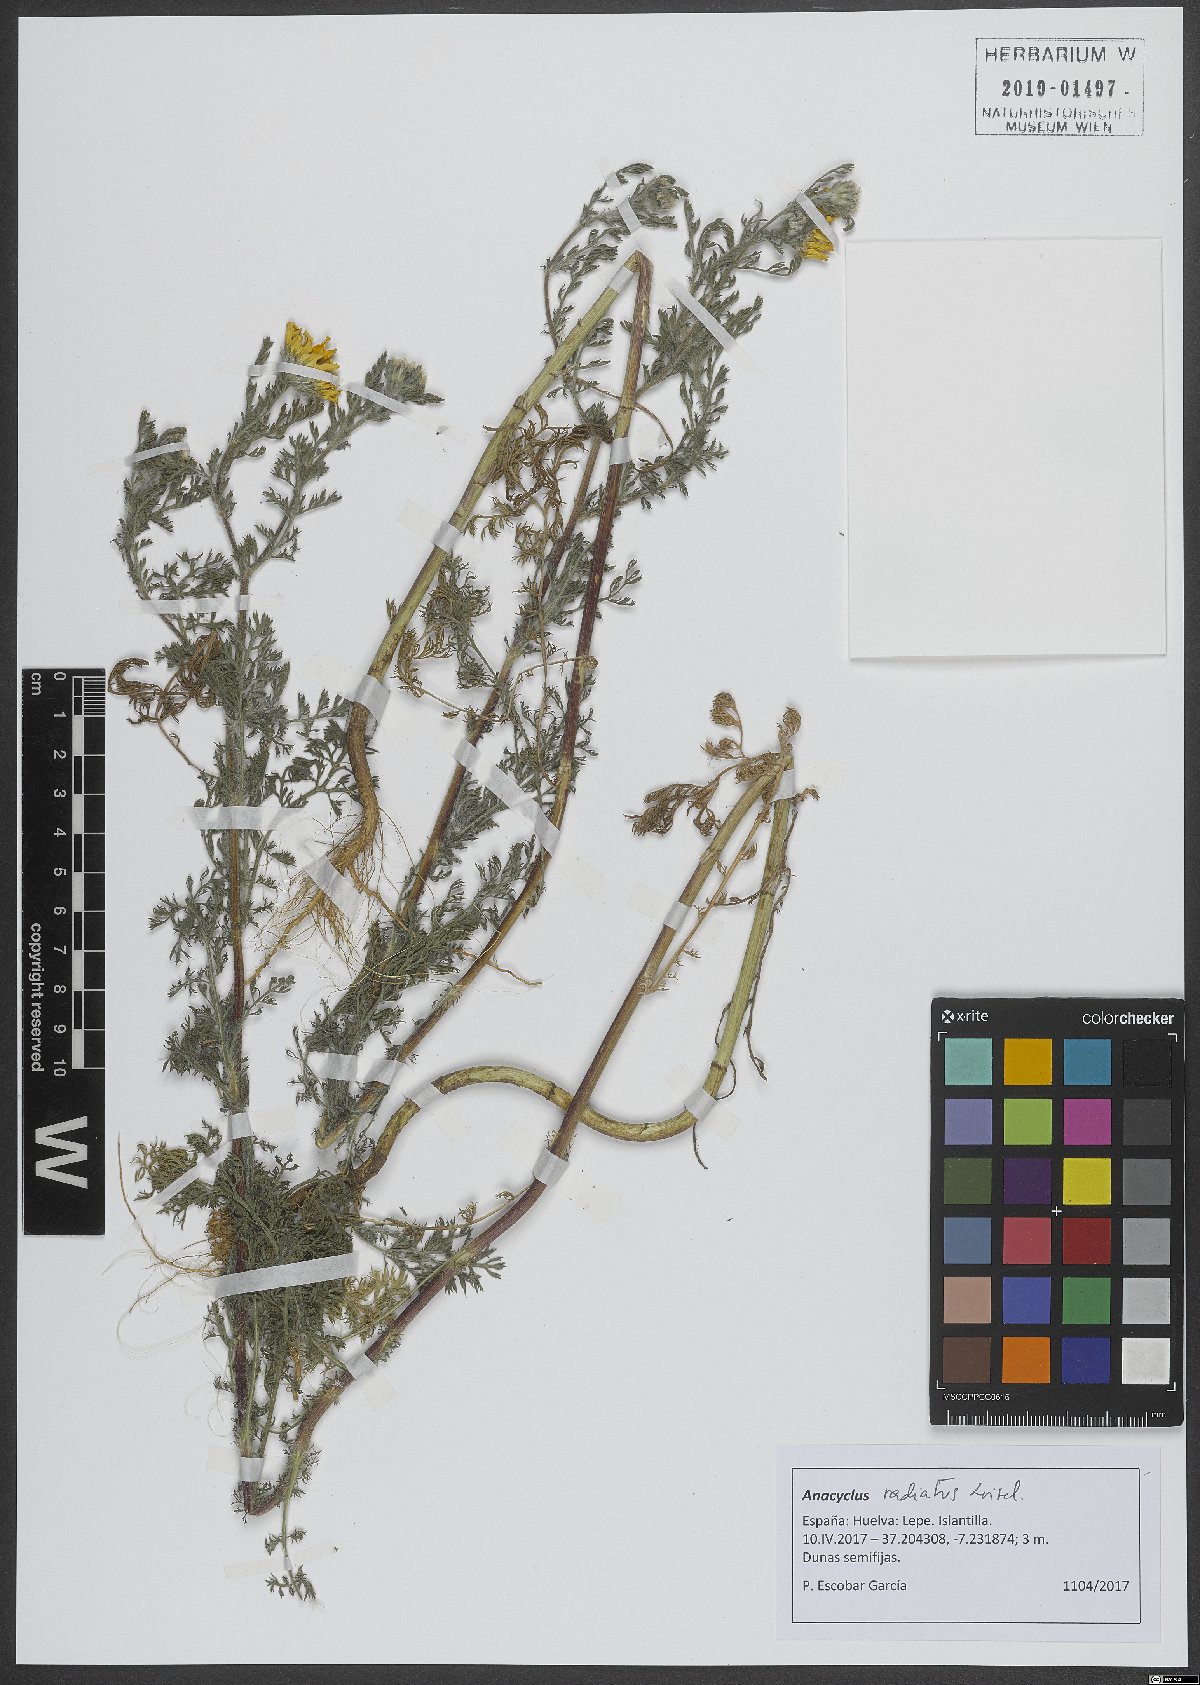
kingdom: Plantae
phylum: Tracheophyta
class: Magnoliopsida
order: Asterales
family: Asteraceae
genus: Anacyclus
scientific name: Anacyclus radiatus
